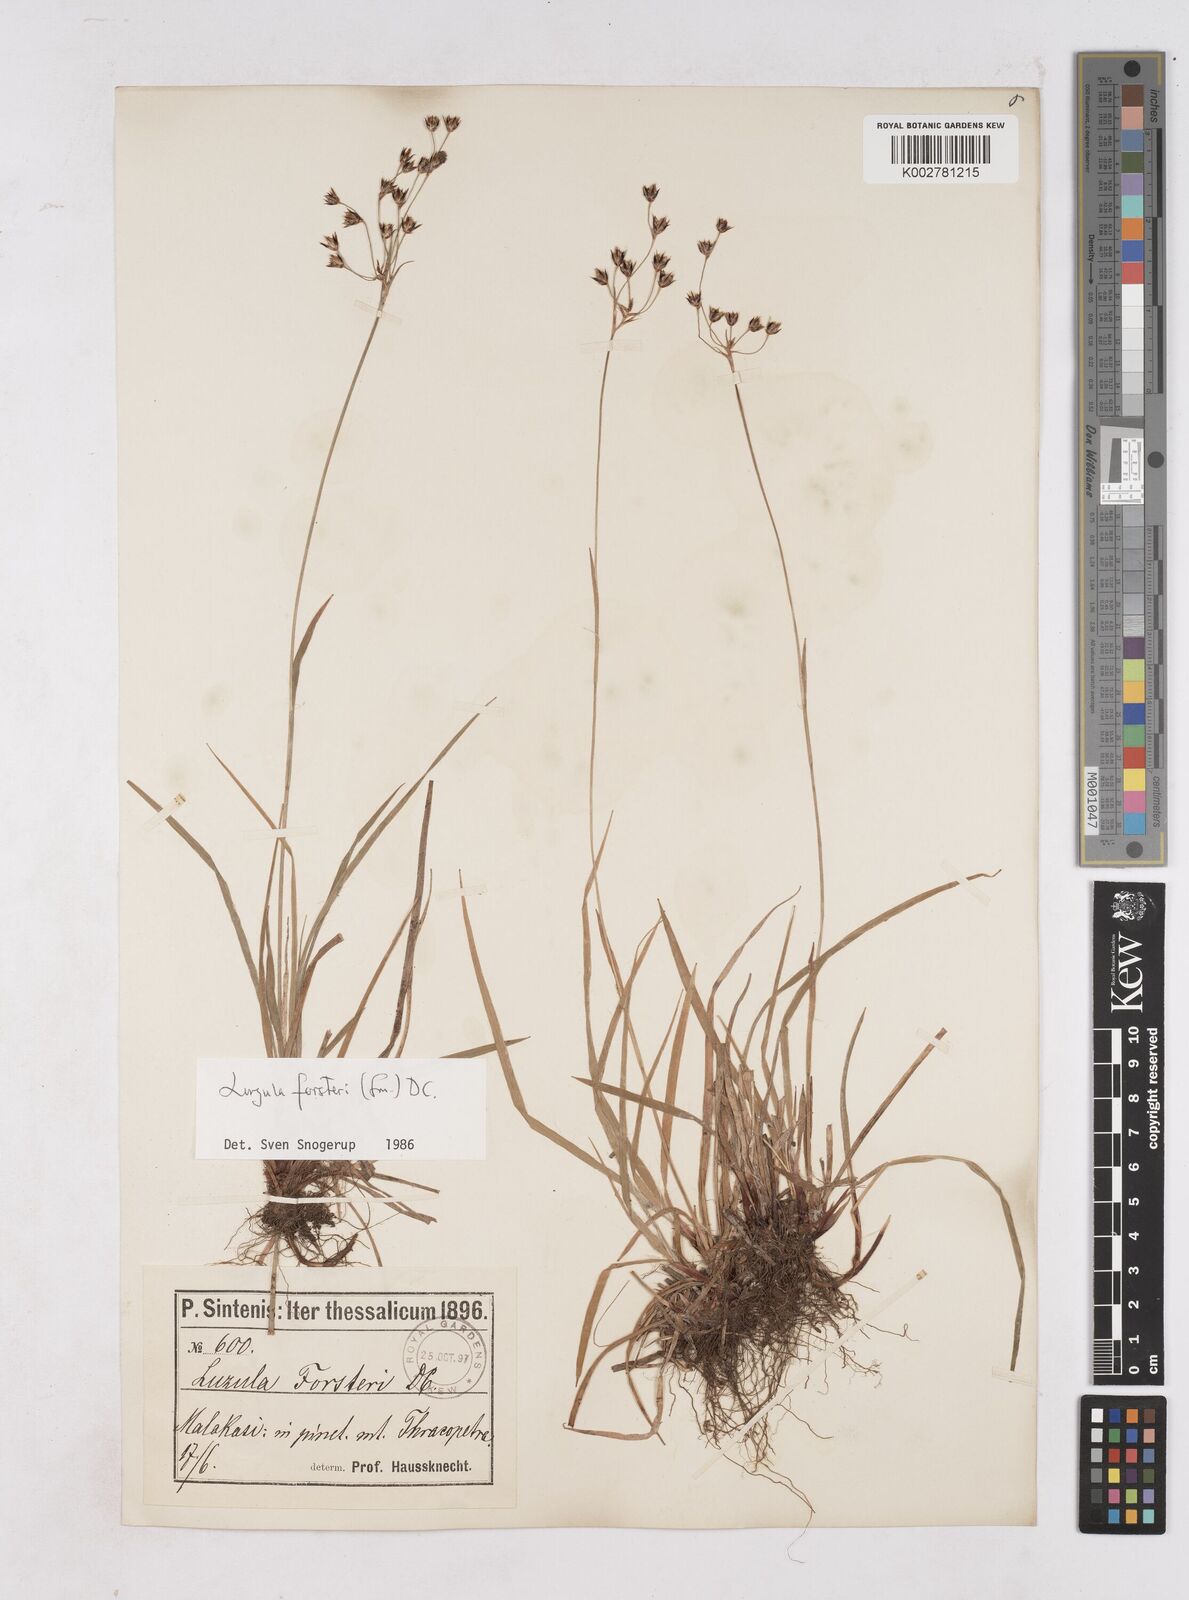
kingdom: Plantae
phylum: Tracheophyta
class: Liliopsida
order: Poales
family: Juncaceae
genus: Luzula
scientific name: Luzula forsteri
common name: Southern wood-rush
